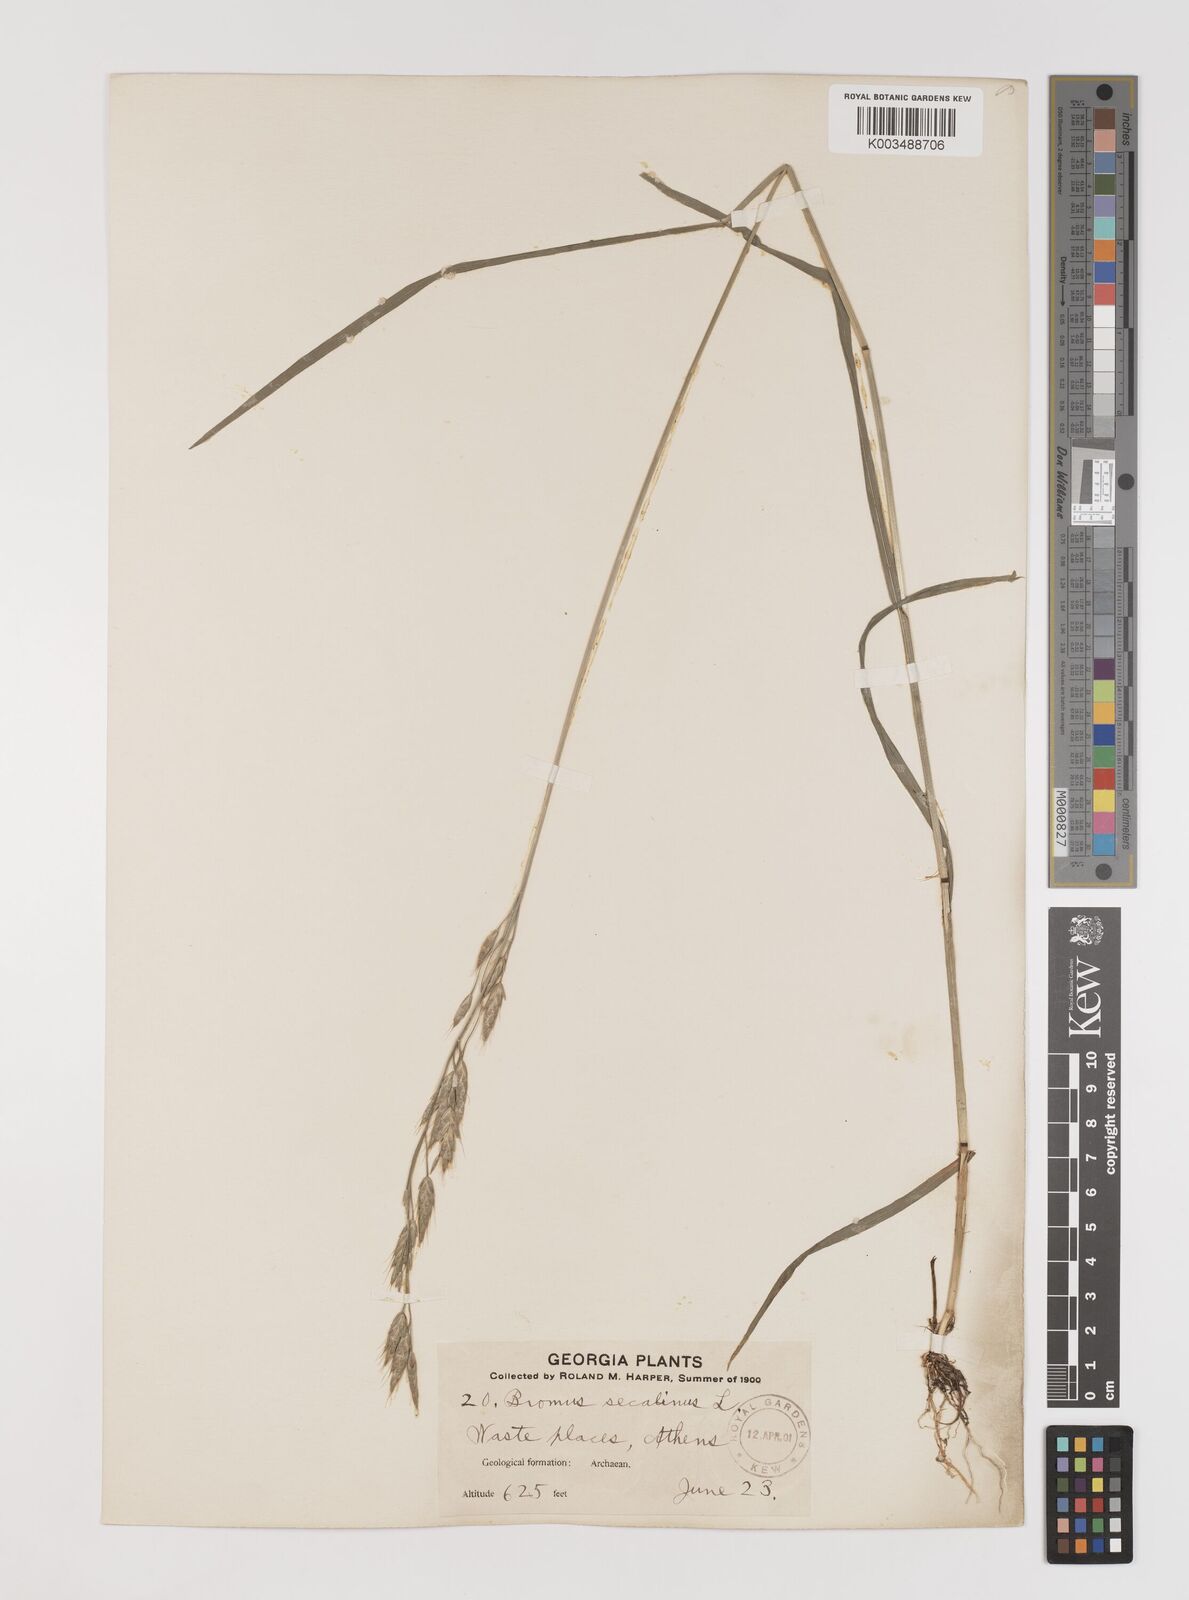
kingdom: Plantae
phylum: Tracheophyta
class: Liliopsida
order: Poales
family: Poaceae
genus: Bromus
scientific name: Bromus racemosus
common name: Bald brome
